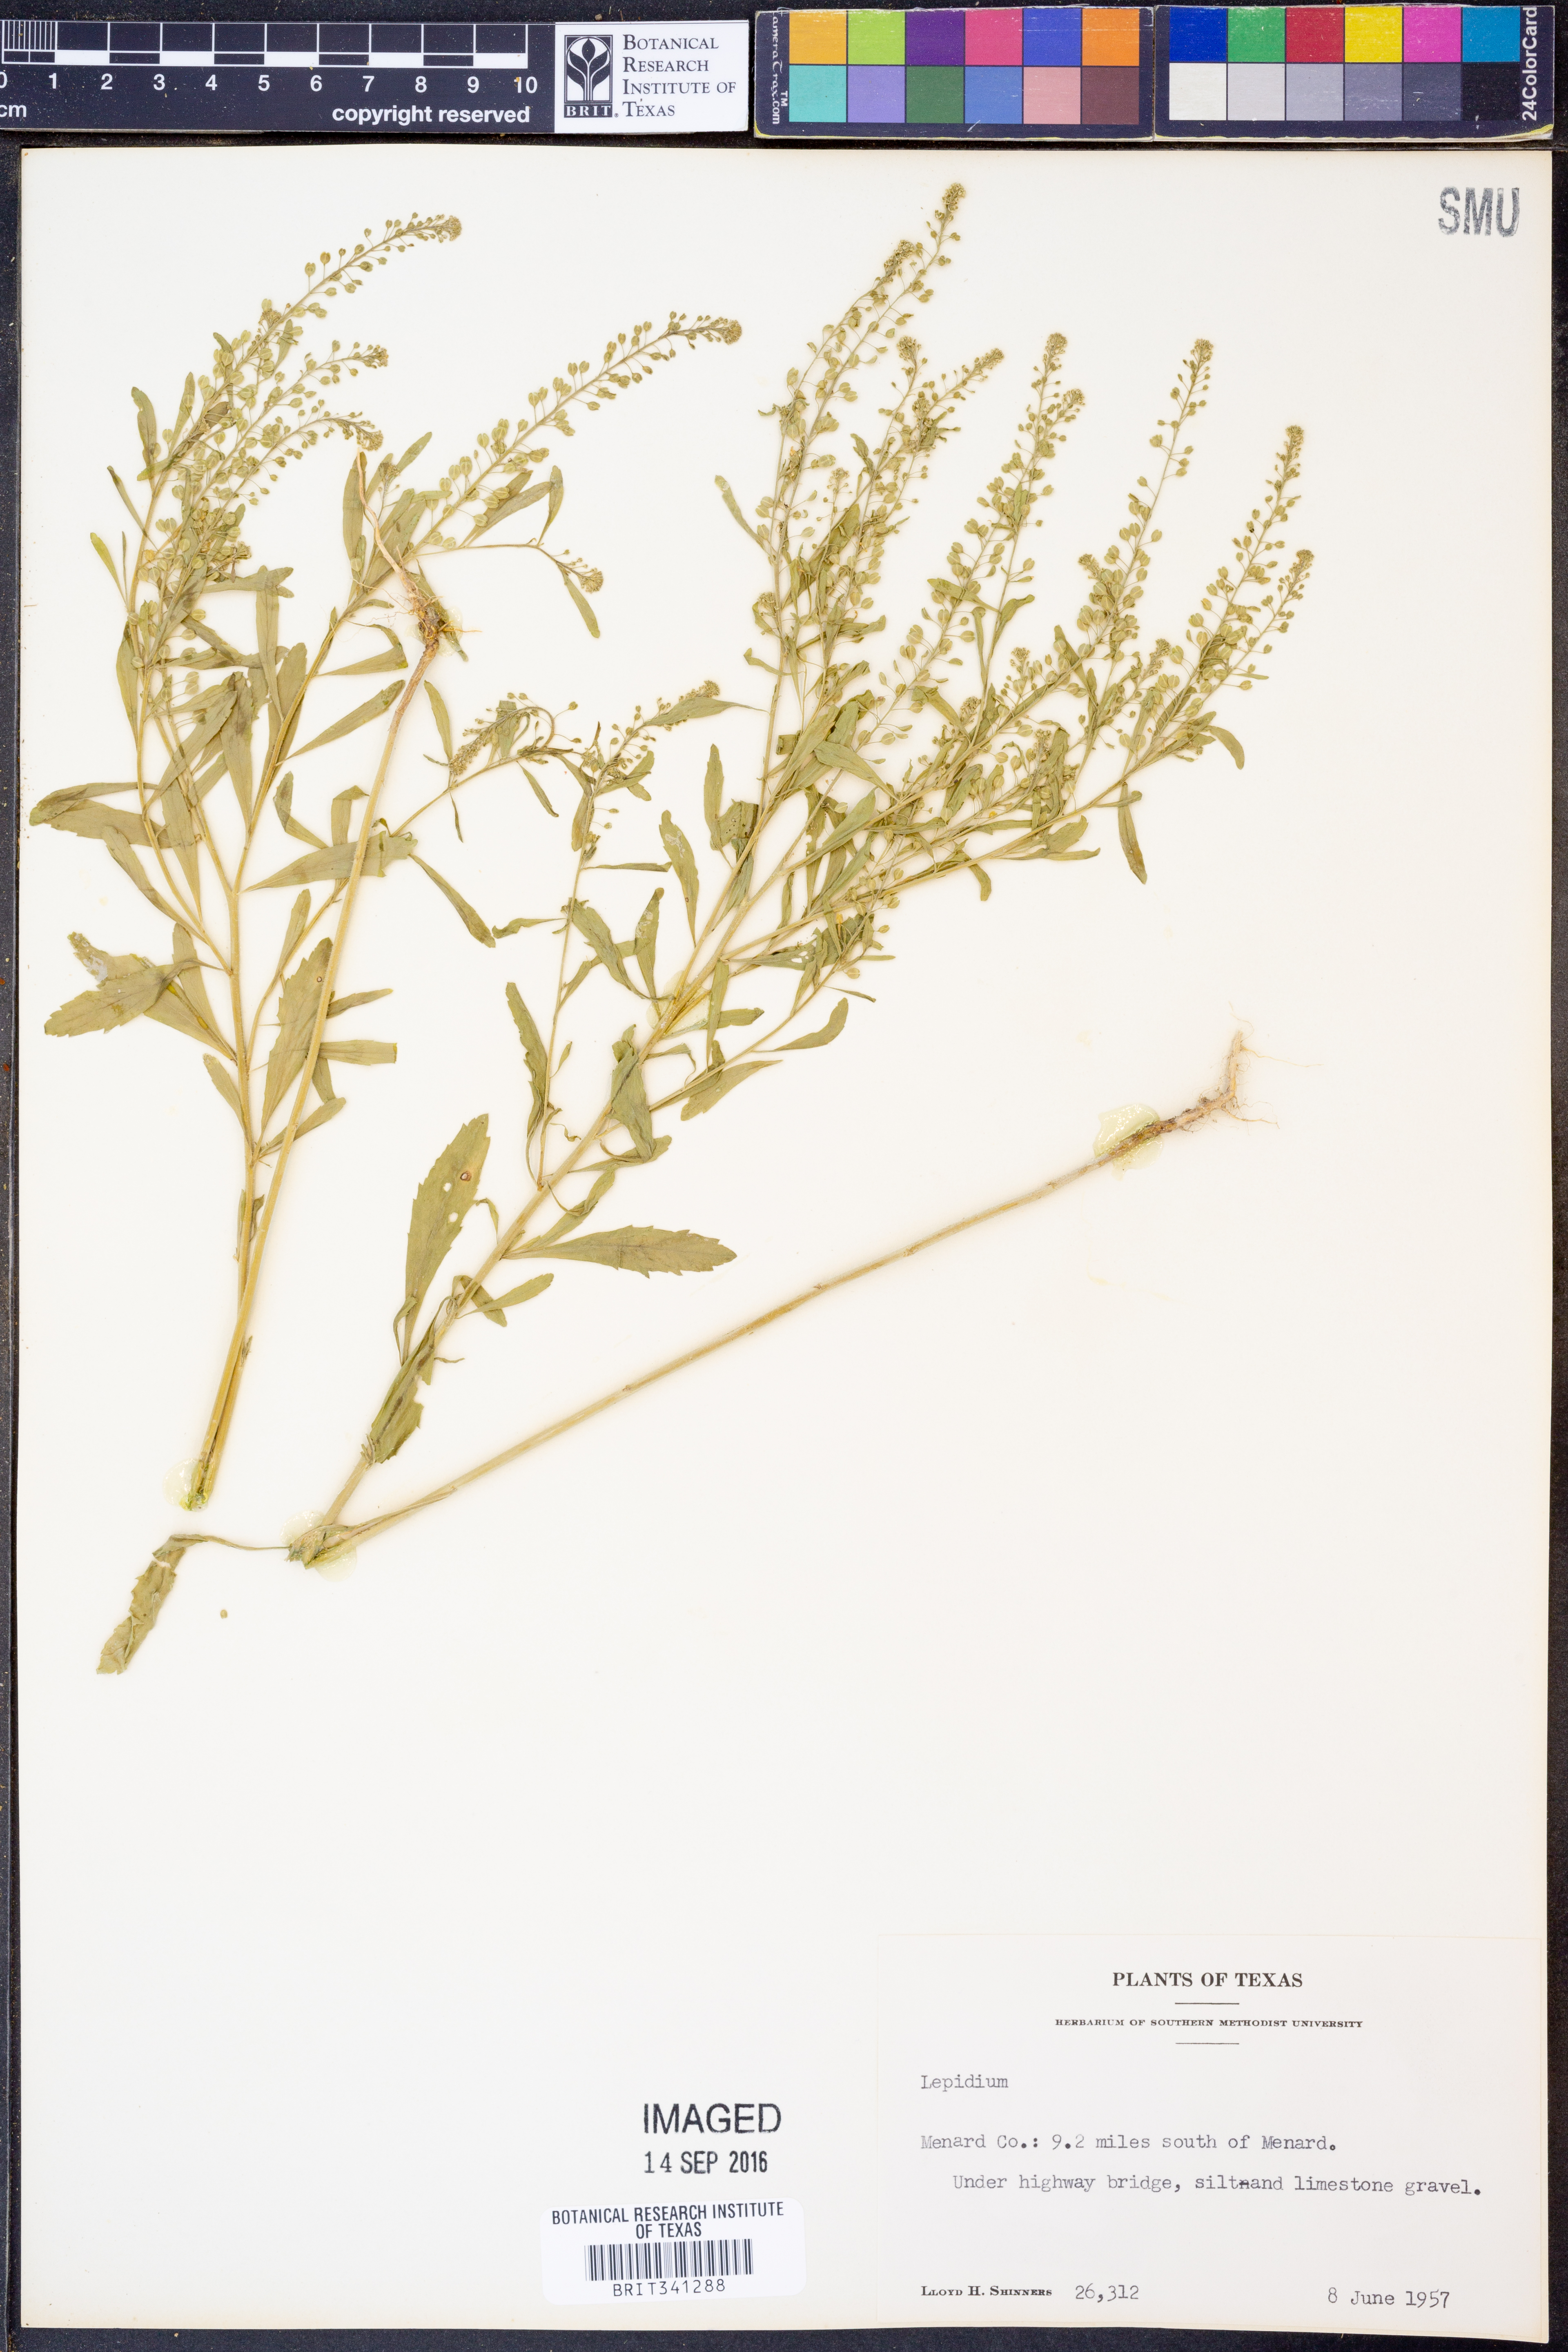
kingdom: Plantae
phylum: Tracheophyta
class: Magnoliopsida
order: Brassicales
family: Brassicaceae
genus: Lepidium
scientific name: Lepidium
